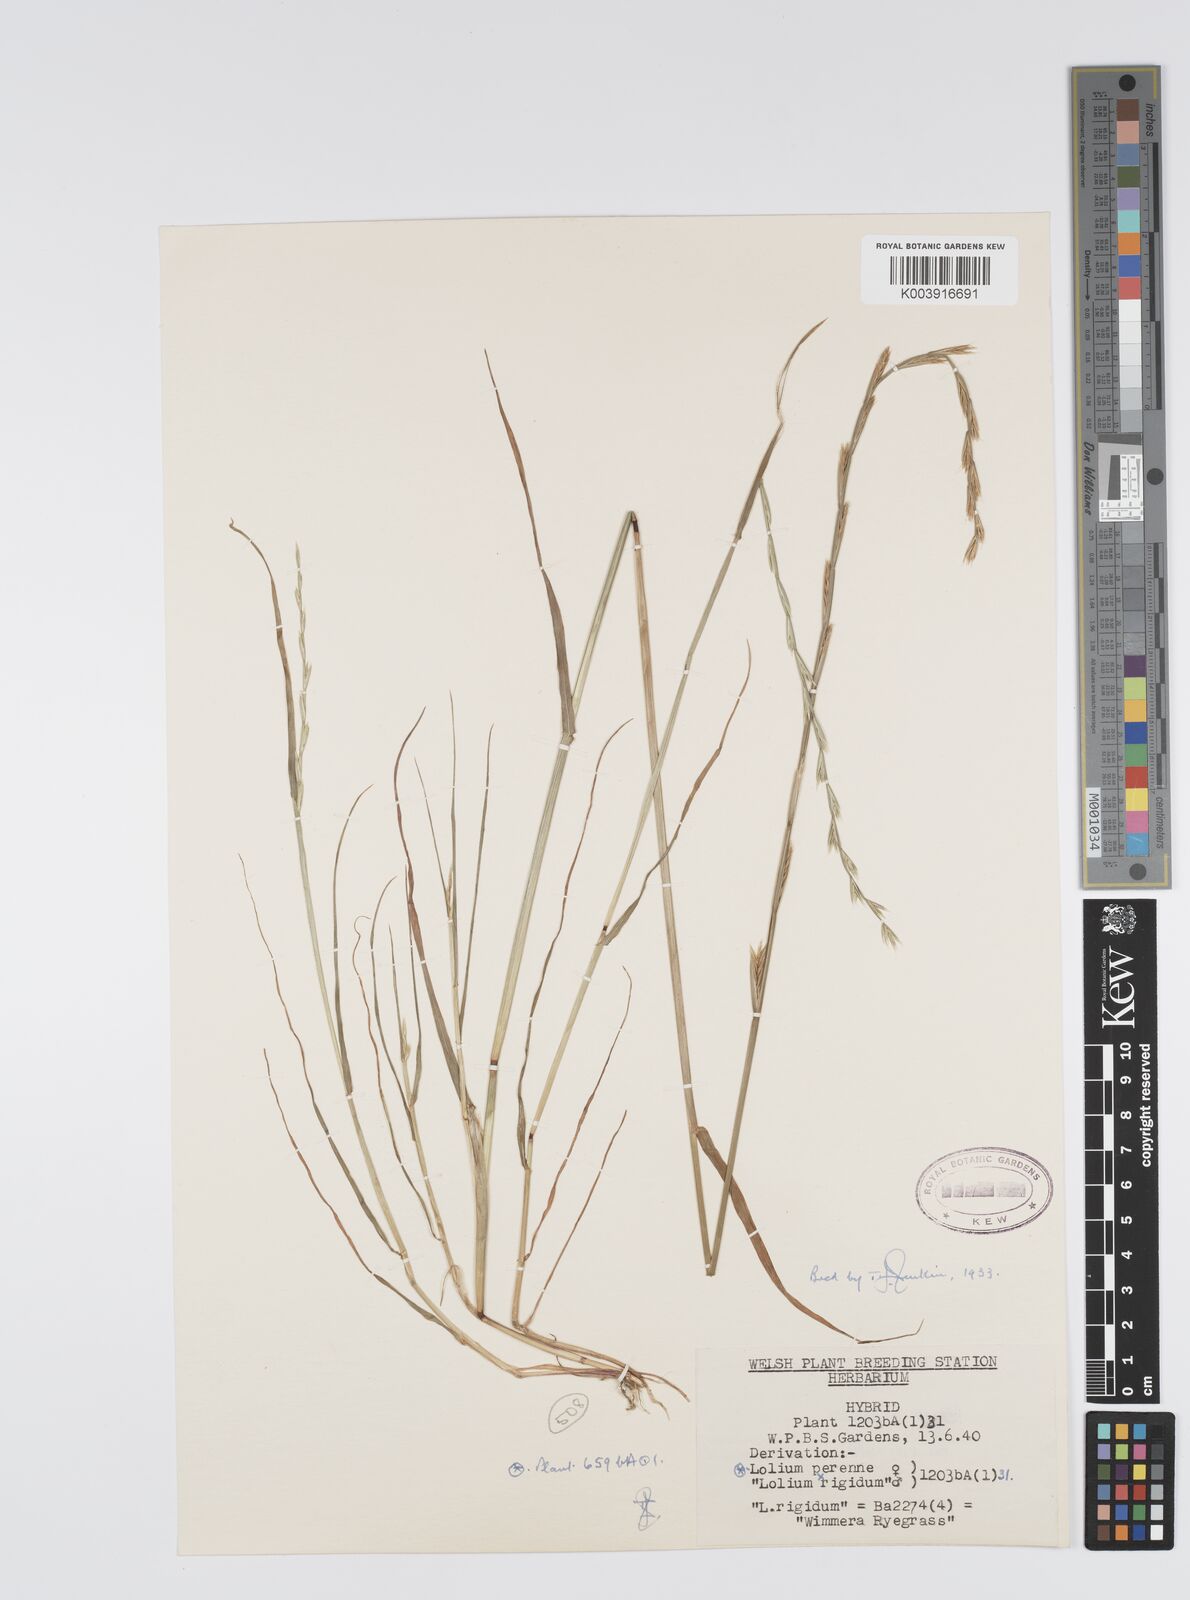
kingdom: Plantae
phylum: Tracheophyta
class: Liliopsida
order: Poales
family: Poaceae
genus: Lolium
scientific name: Lolium perenne
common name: Perennial ryegrass
